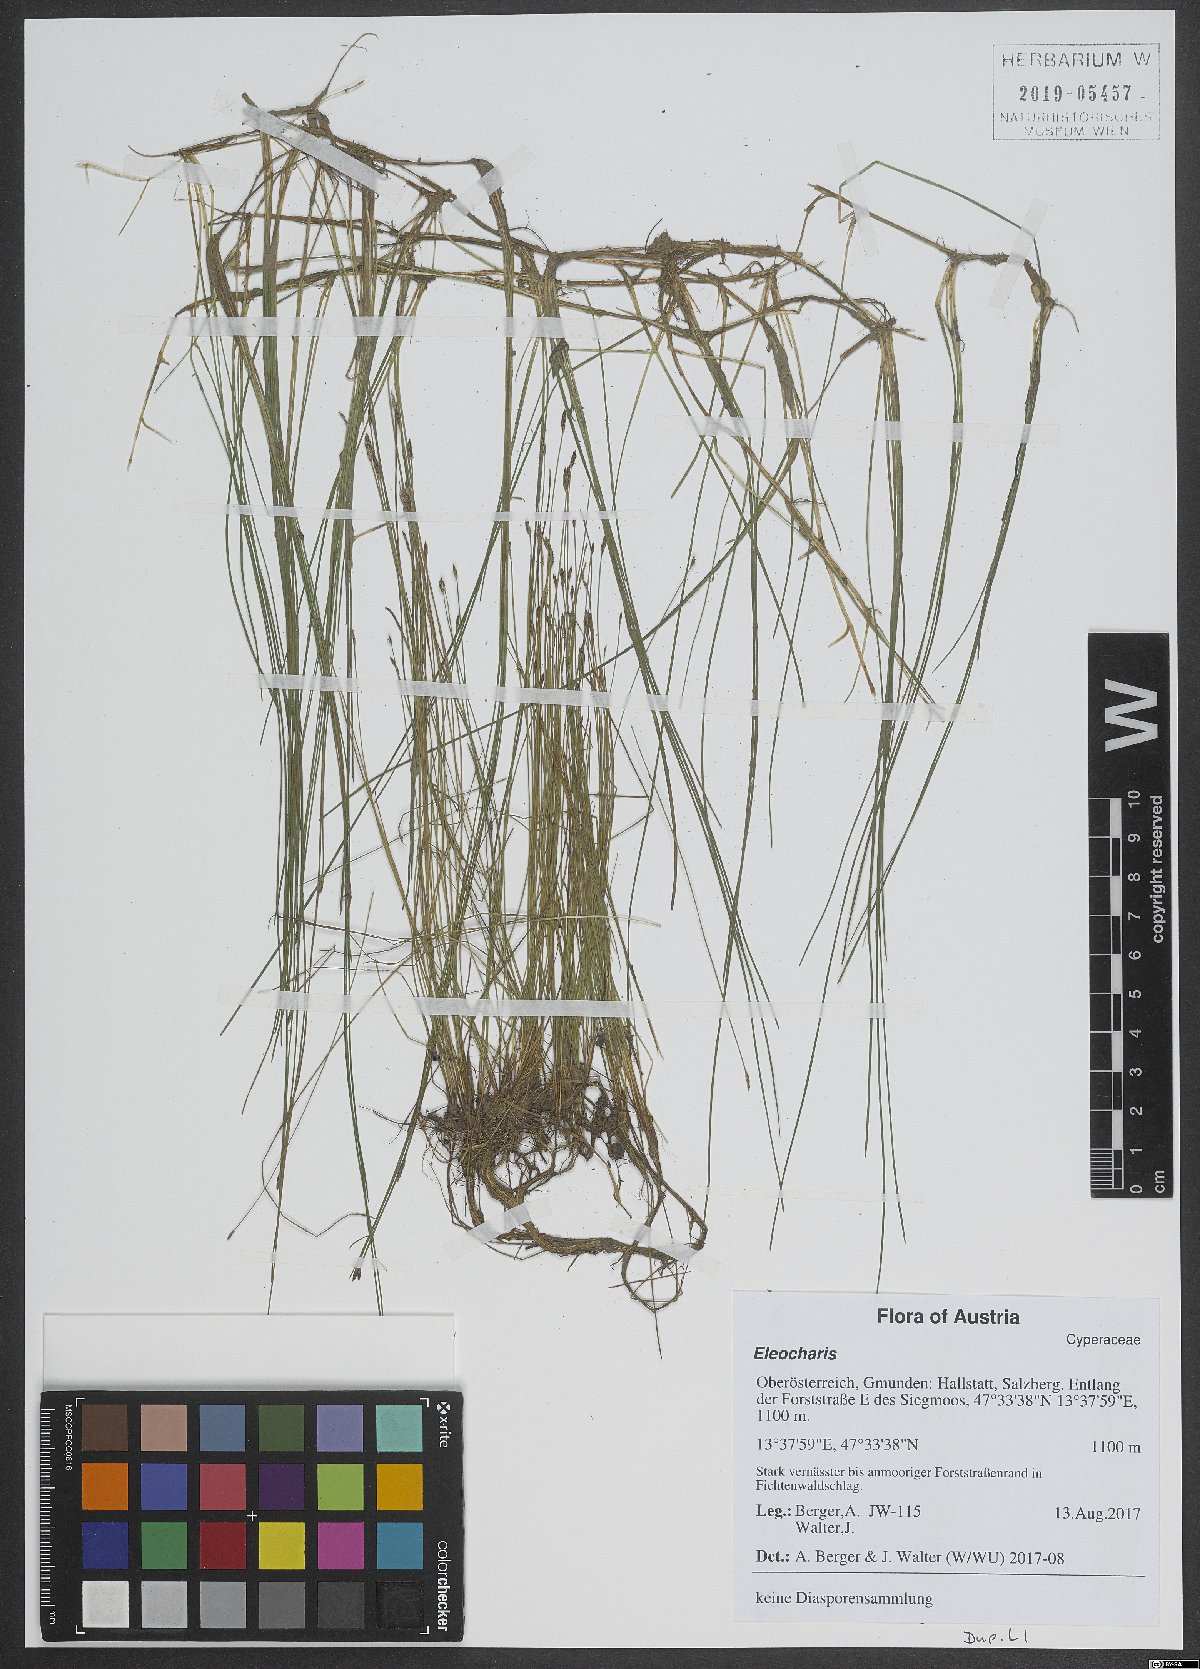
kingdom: Plantae
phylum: Tracheophyta
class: Liliopsida
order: Poales
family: Cyperaceae
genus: Eleocharis
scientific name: Eleocharis
